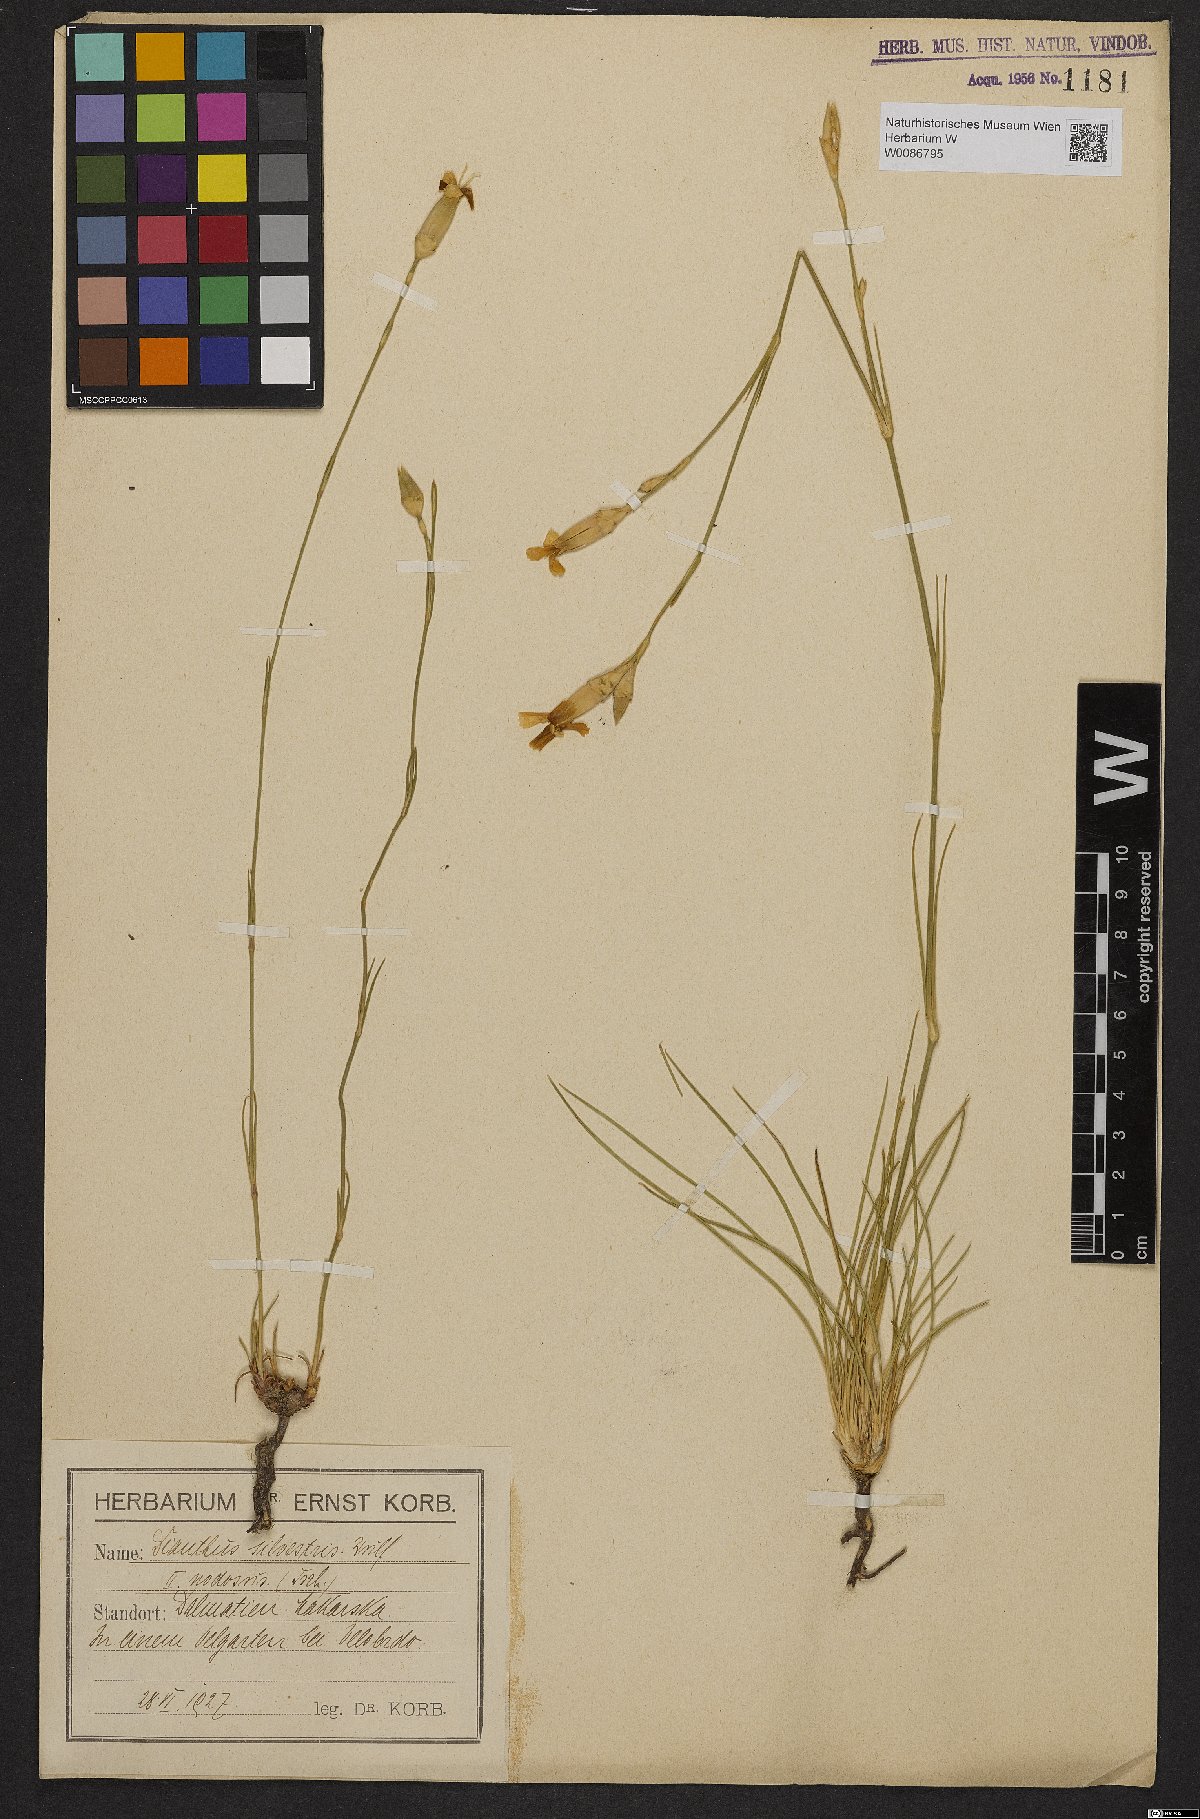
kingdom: Plantae
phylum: Tracheophyta
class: Magnoliopsida
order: Caryophyllales
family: Caryophyllaceae
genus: Dianthus
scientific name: Dianthus sylvestris
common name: Wood pink
